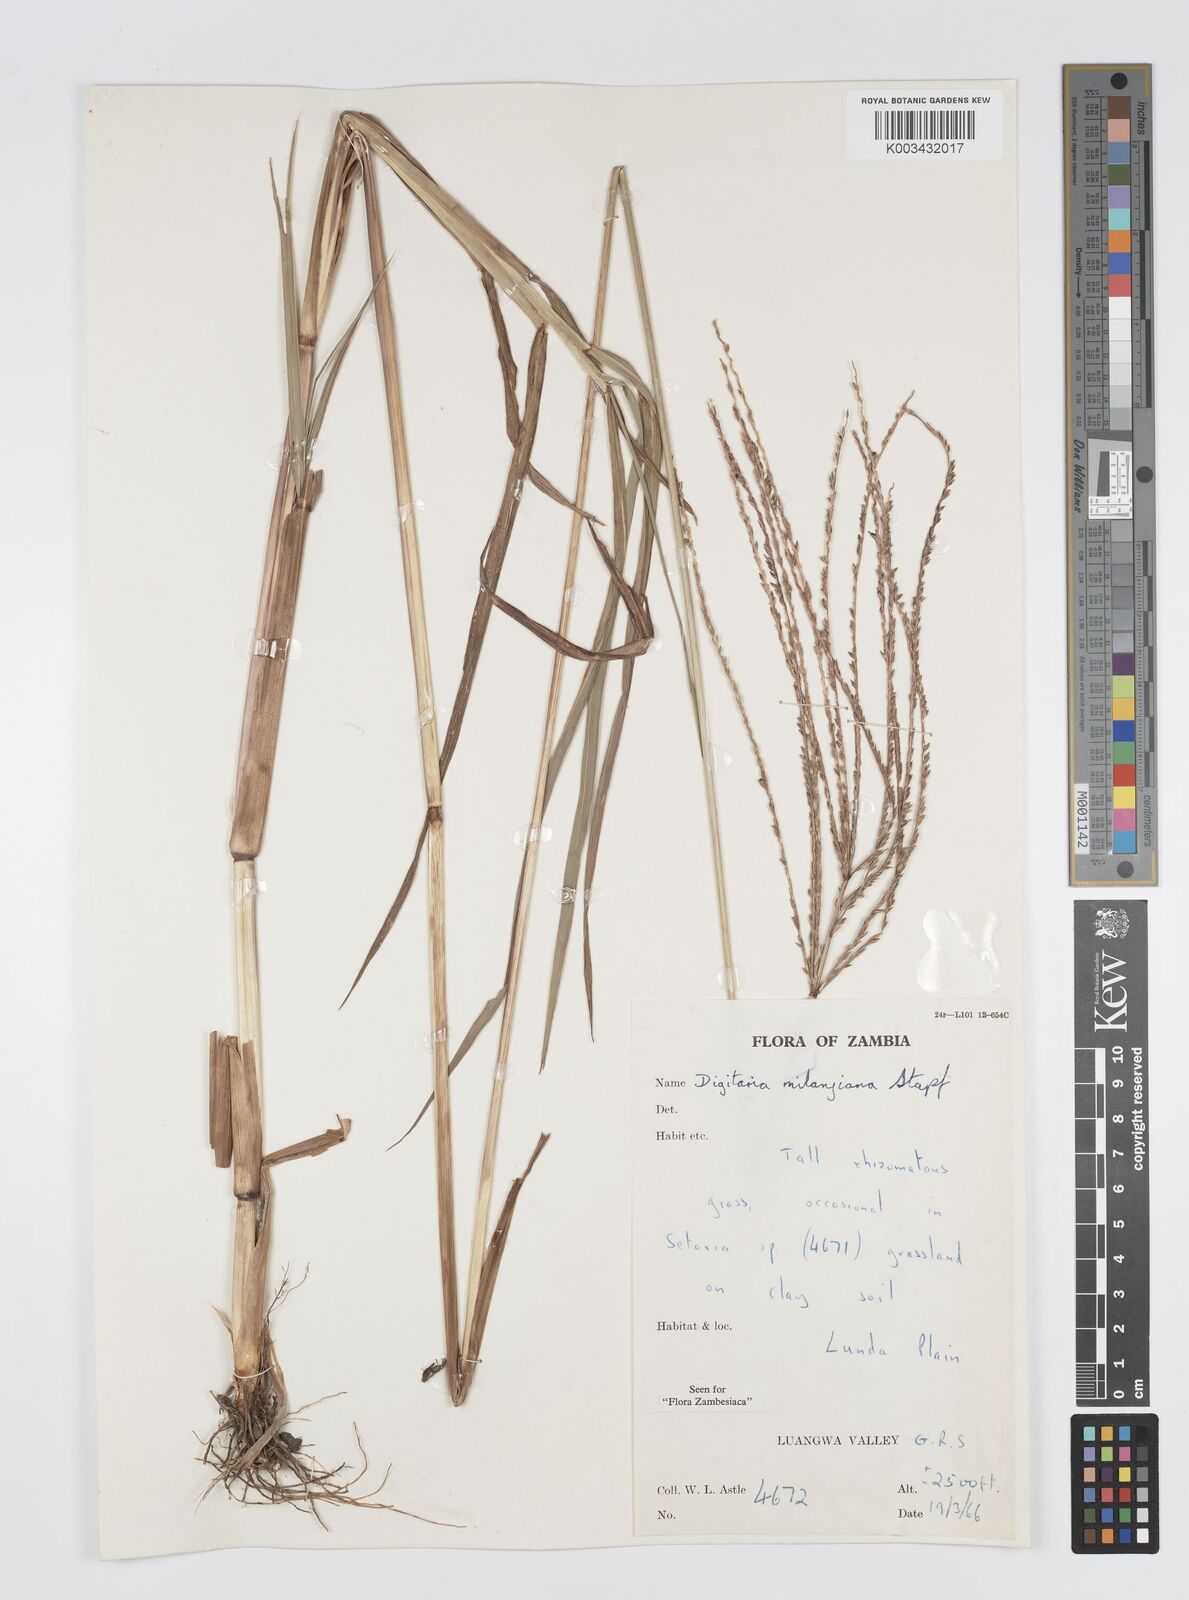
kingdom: Plantae
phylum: Tracheophyta
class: Liliopsida
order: Poales
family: Poaceae
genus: Digitaria
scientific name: Digitaria milanjiana
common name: Madagascar crabgrass
